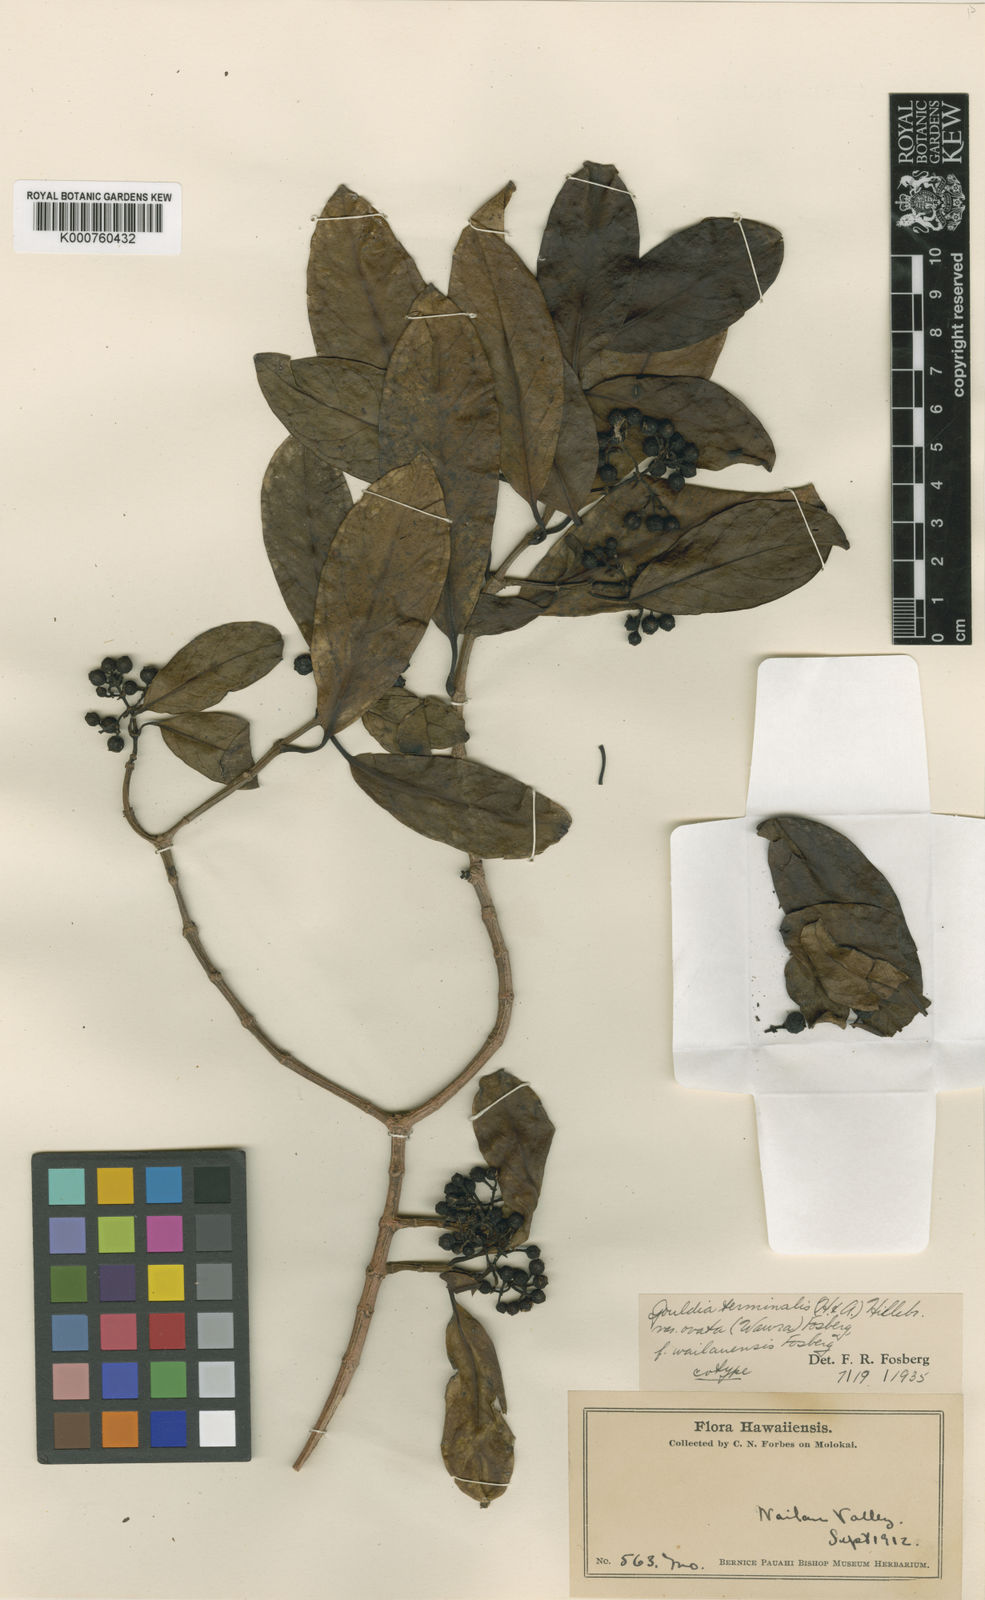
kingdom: Plantae
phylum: Tracheophyta
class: Magnoliopsida
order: Gentianales
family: Rubiaceae
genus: Kadua
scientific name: Kadua affinis
